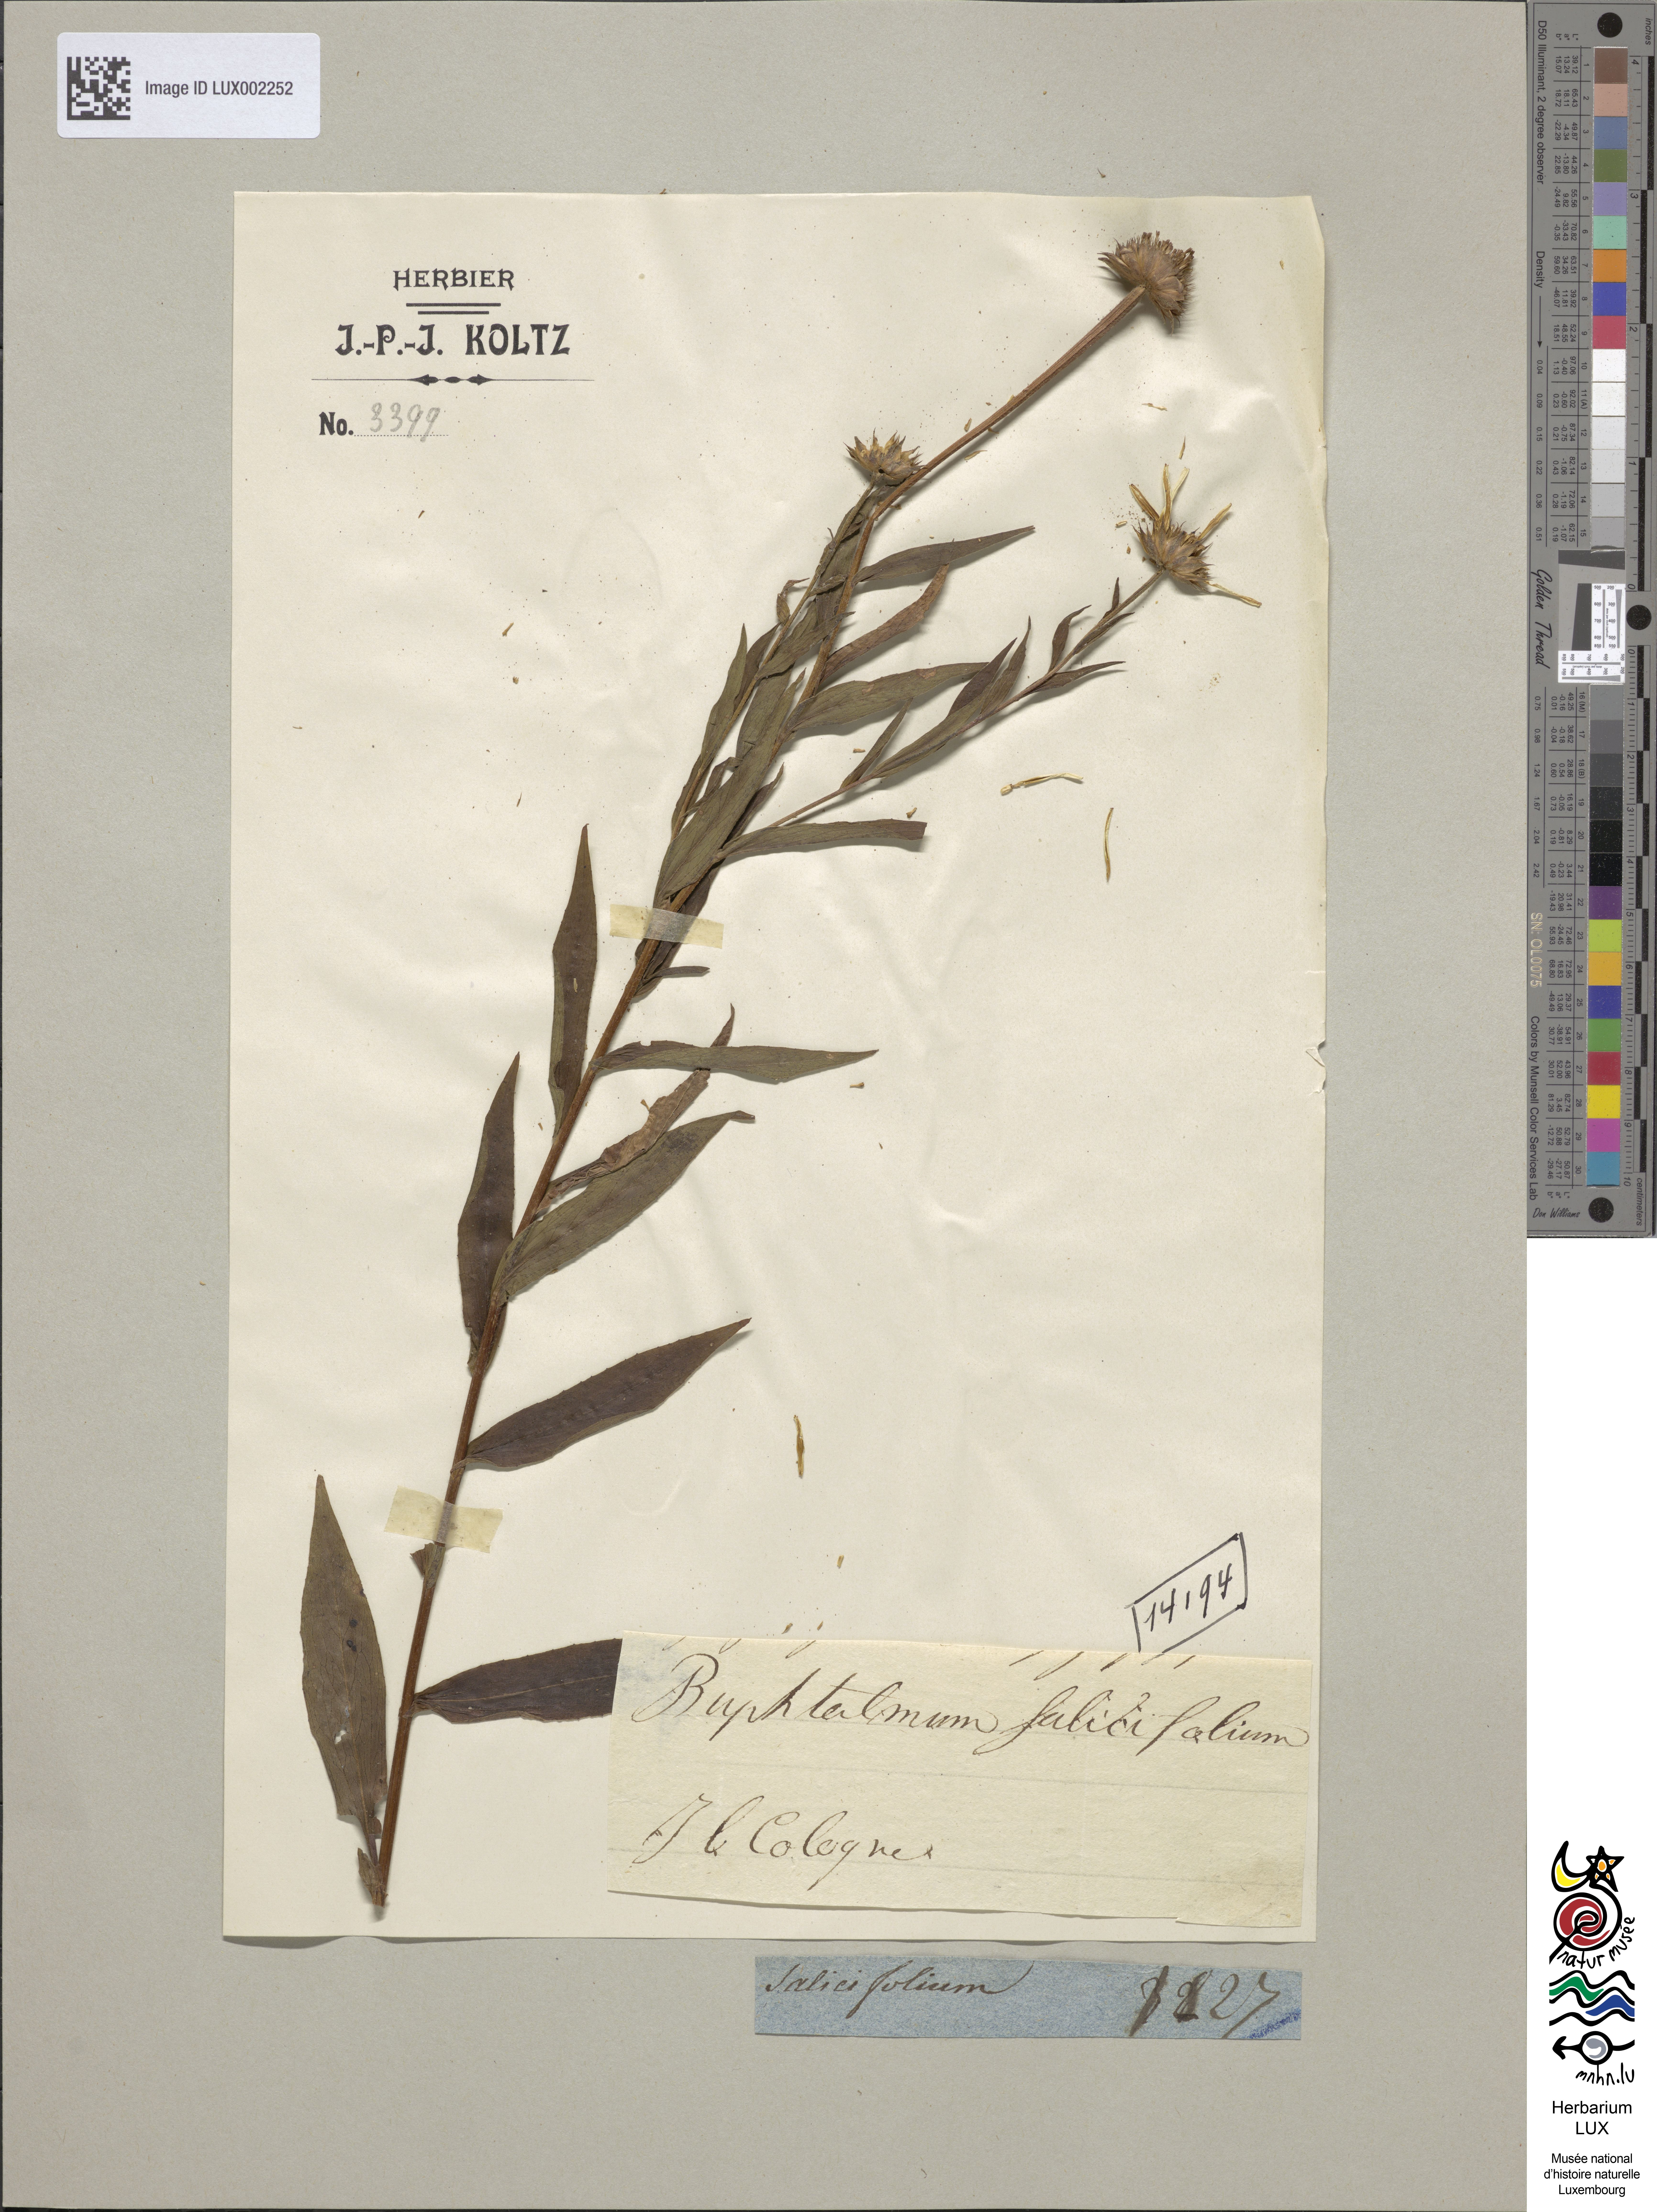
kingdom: Plantae
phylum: Tracheophyta
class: Magnoliopsida
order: Asterales
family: Asteraceae
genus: Buphthalmum
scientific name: Buphthalmum salicifolium
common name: Willow-leaved yellow-oxeye
